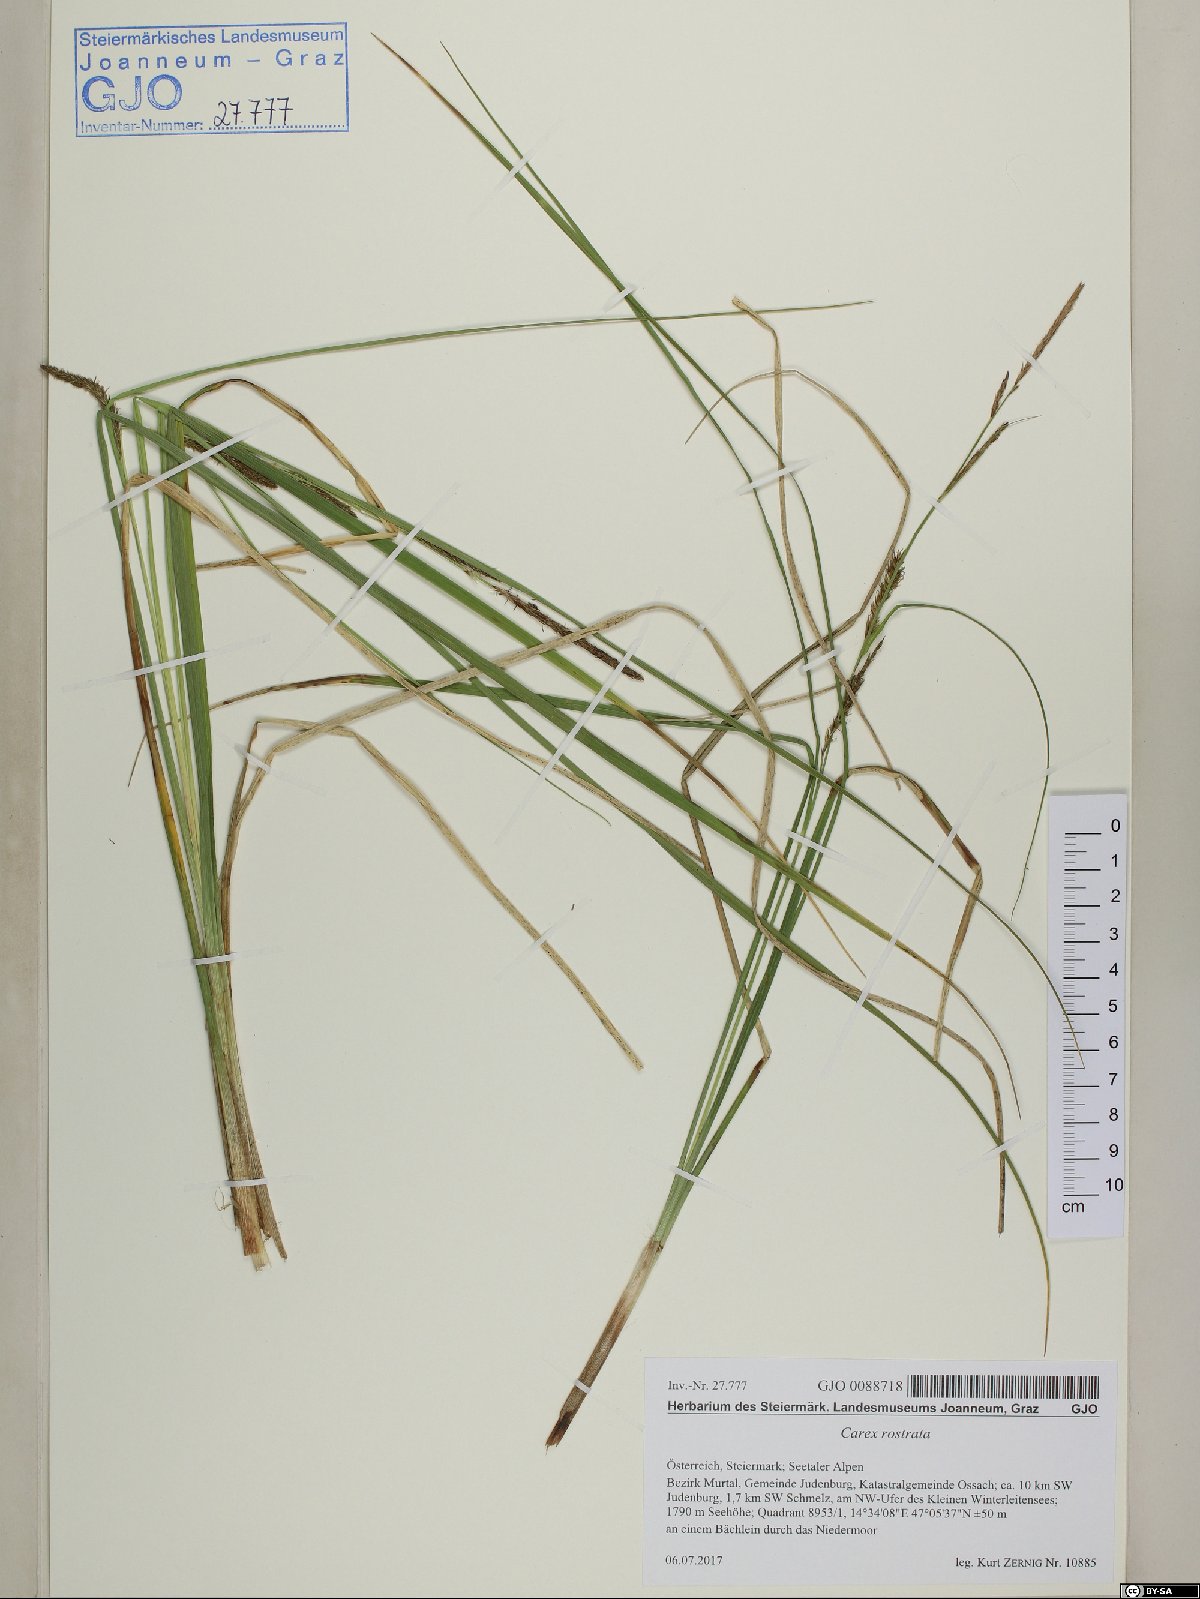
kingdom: Plantae
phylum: Tracheophyta
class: Liliopsida
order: Poales
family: Cyperaceae
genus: Carex
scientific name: Carex rostrata
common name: Bottle sedge
